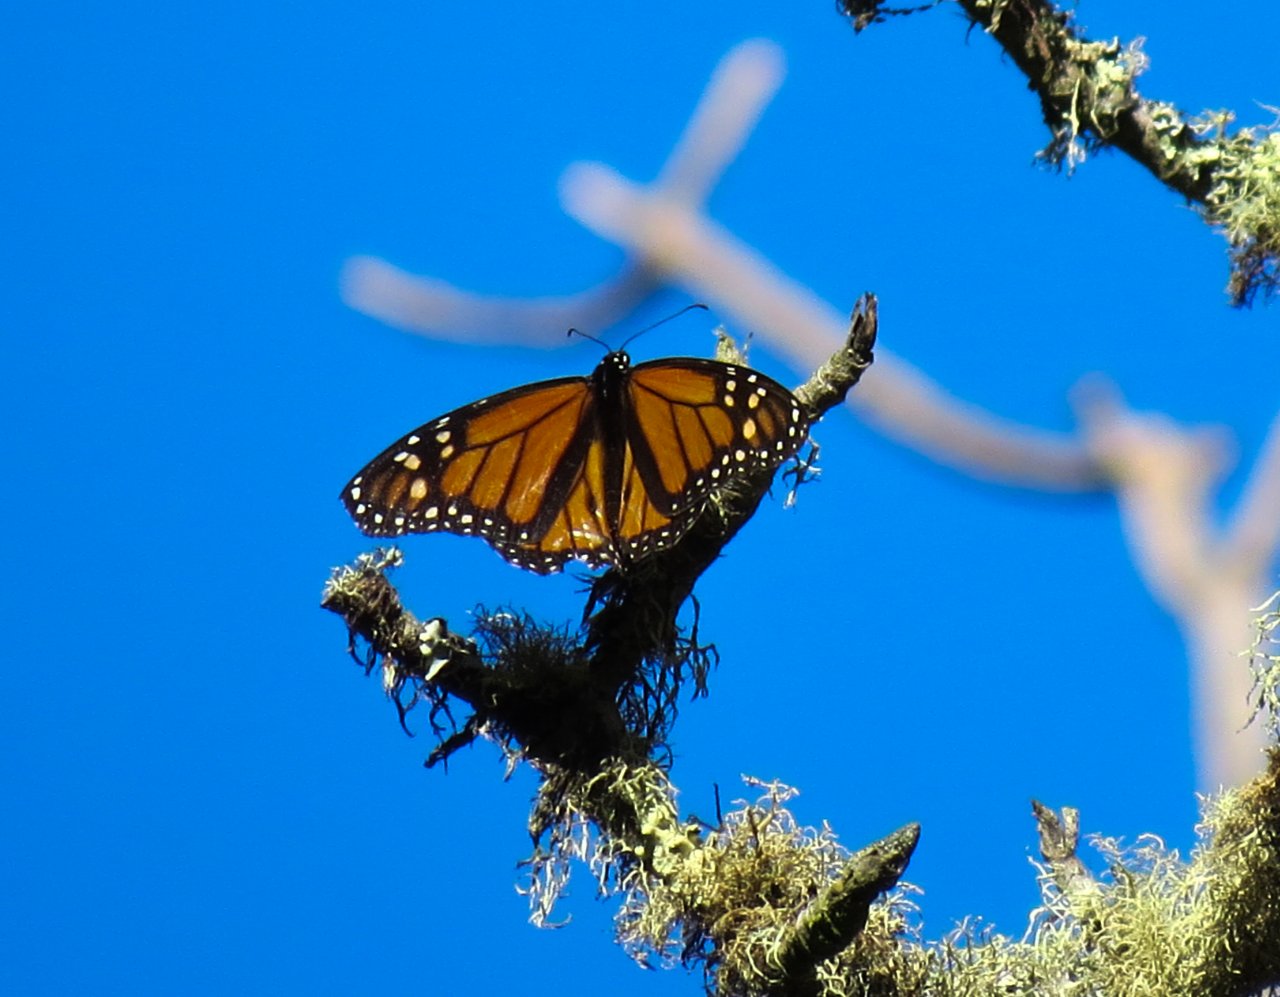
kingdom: Animalia
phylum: Arthropoda
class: Insecta
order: Lepidoptera
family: Nymphalidae
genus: Danaus
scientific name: Danaus plexippus
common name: Monarch
